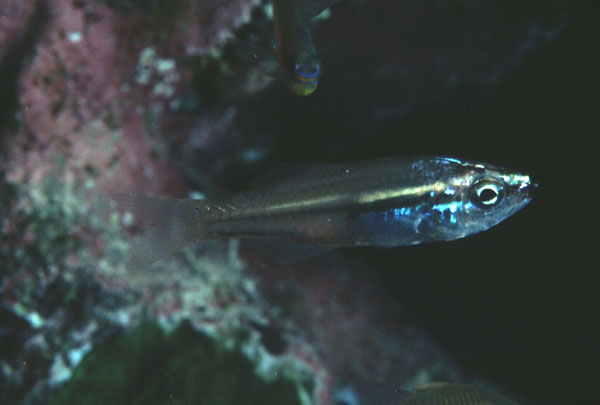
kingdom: Animalia
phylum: Chordata
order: Perciformes
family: Apogonidae
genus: Rhabdamia
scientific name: Rhabdamia nigrimentum
